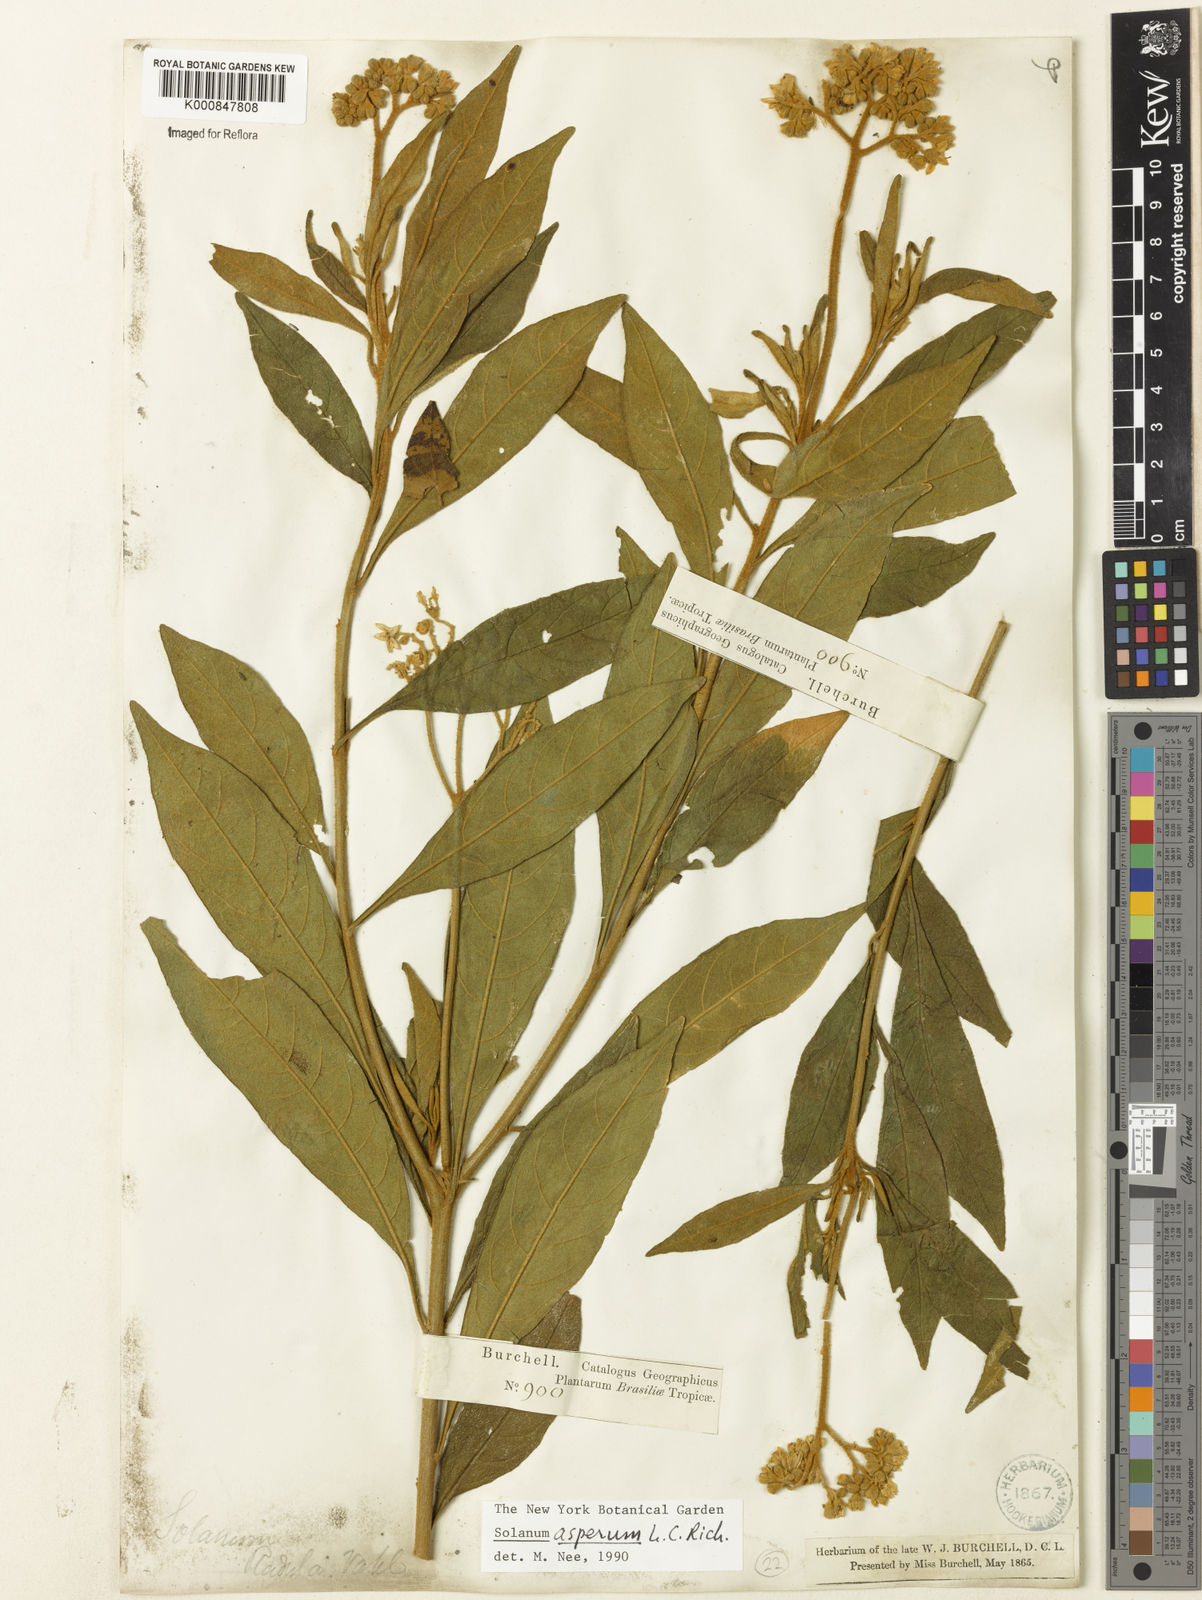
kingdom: Plantae
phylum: Tracheophyta
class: Magnoliopsida
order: Solanales
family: Solanaceae
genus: Solanum
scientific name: Solanum asperum
